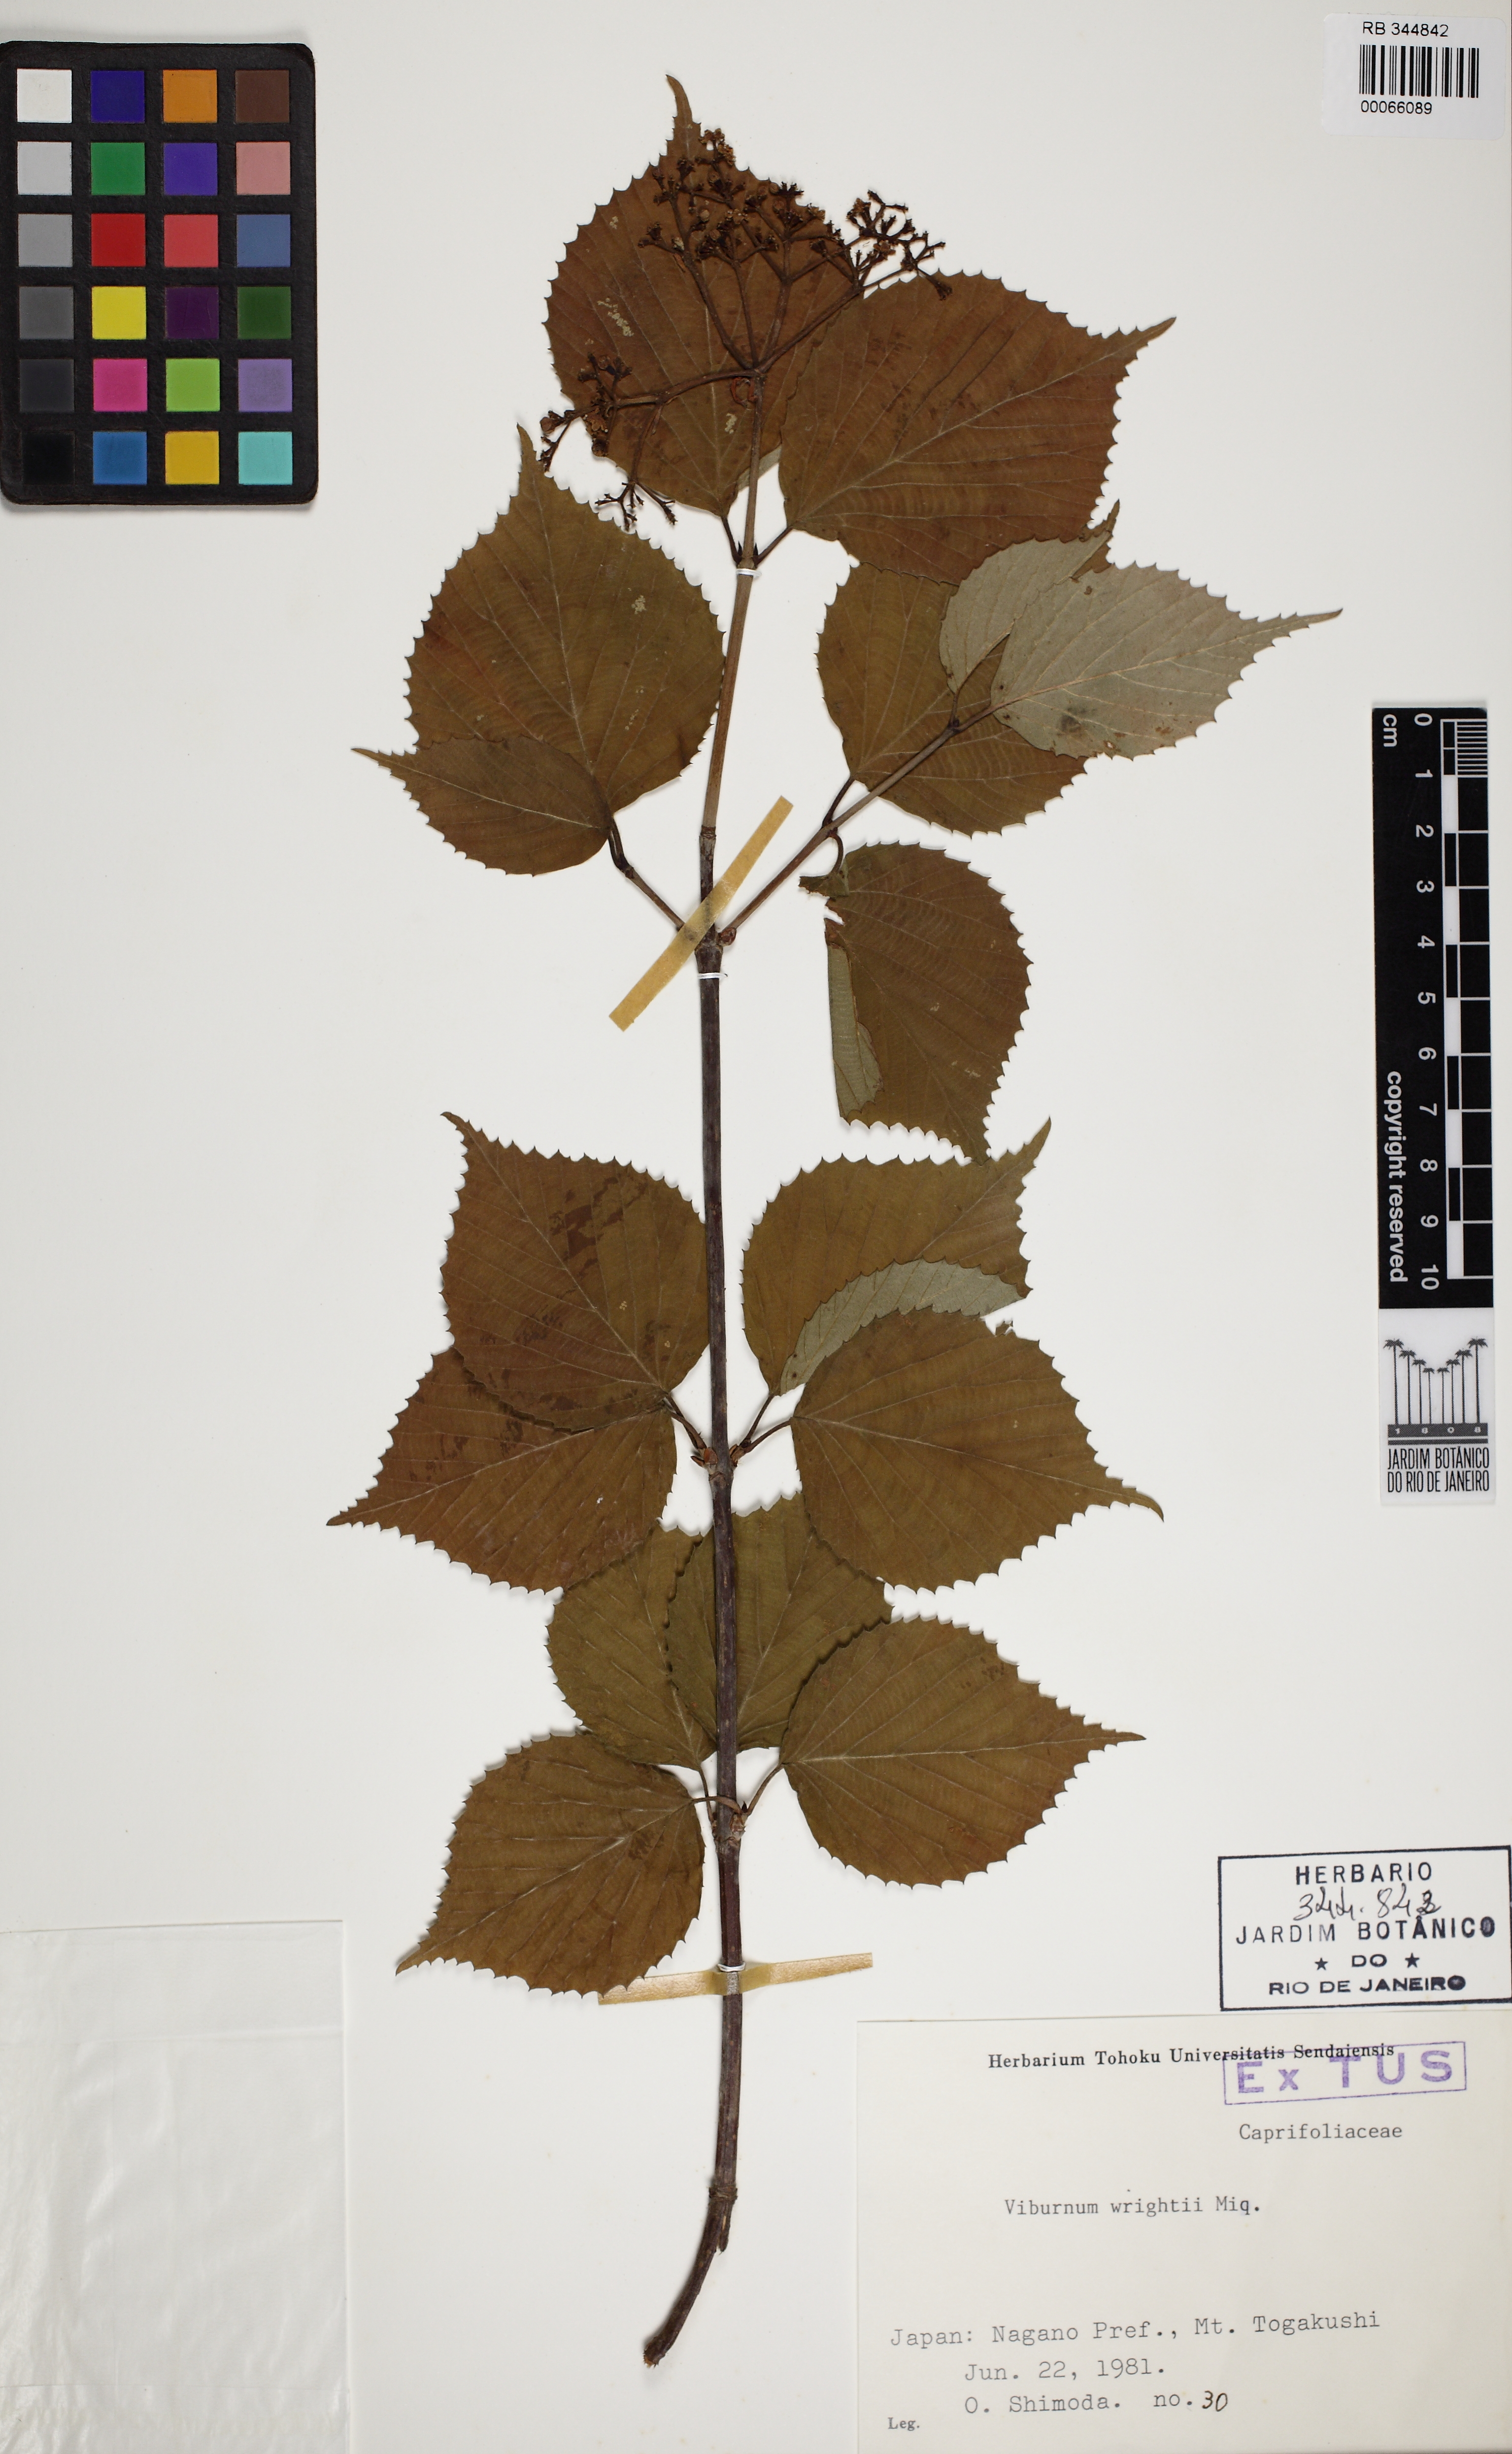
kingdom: Plantae
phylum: Tracheophyta
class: Magnoliopsida
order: Dipsacales
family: Viburnaceae
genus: Viburnum
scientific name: Viburnum wrightii
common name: Wright's viburnum
